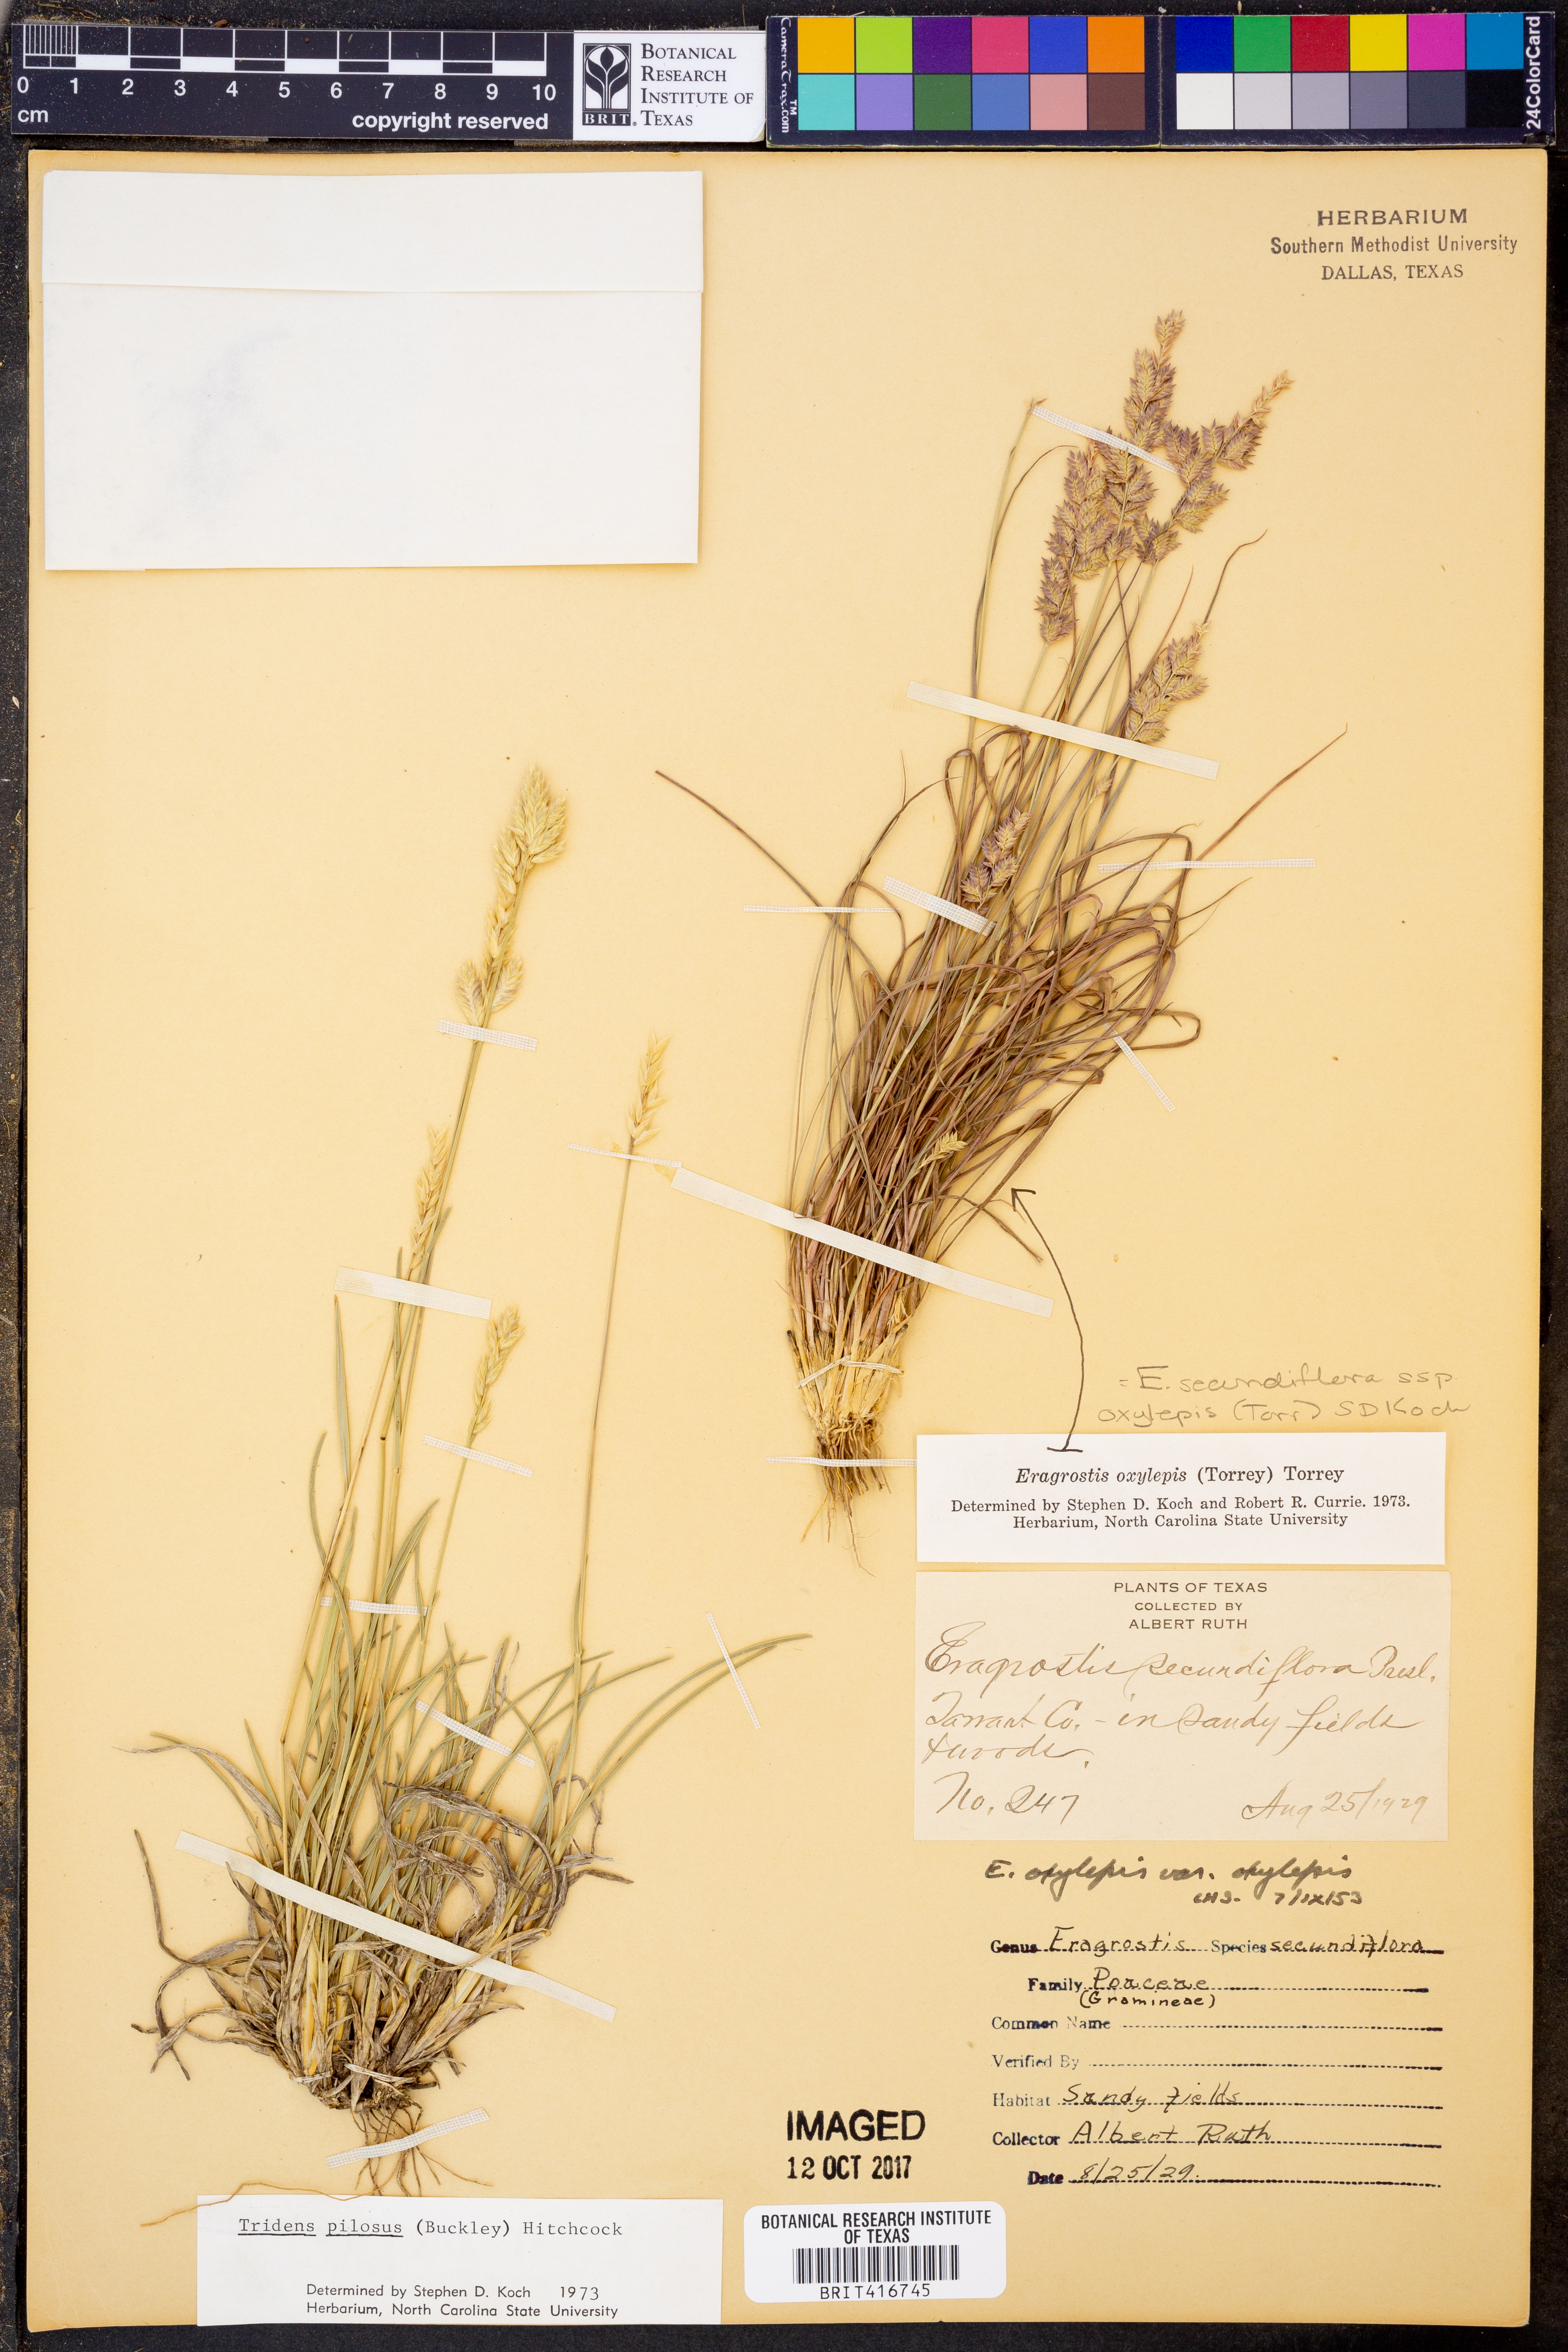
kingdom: Plantae
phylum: Tracheophyta
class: Liliopsida
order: Poales
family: Poaceae
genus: Eragrostis
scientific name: Eragrostis secundiflora
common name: Red love grass
